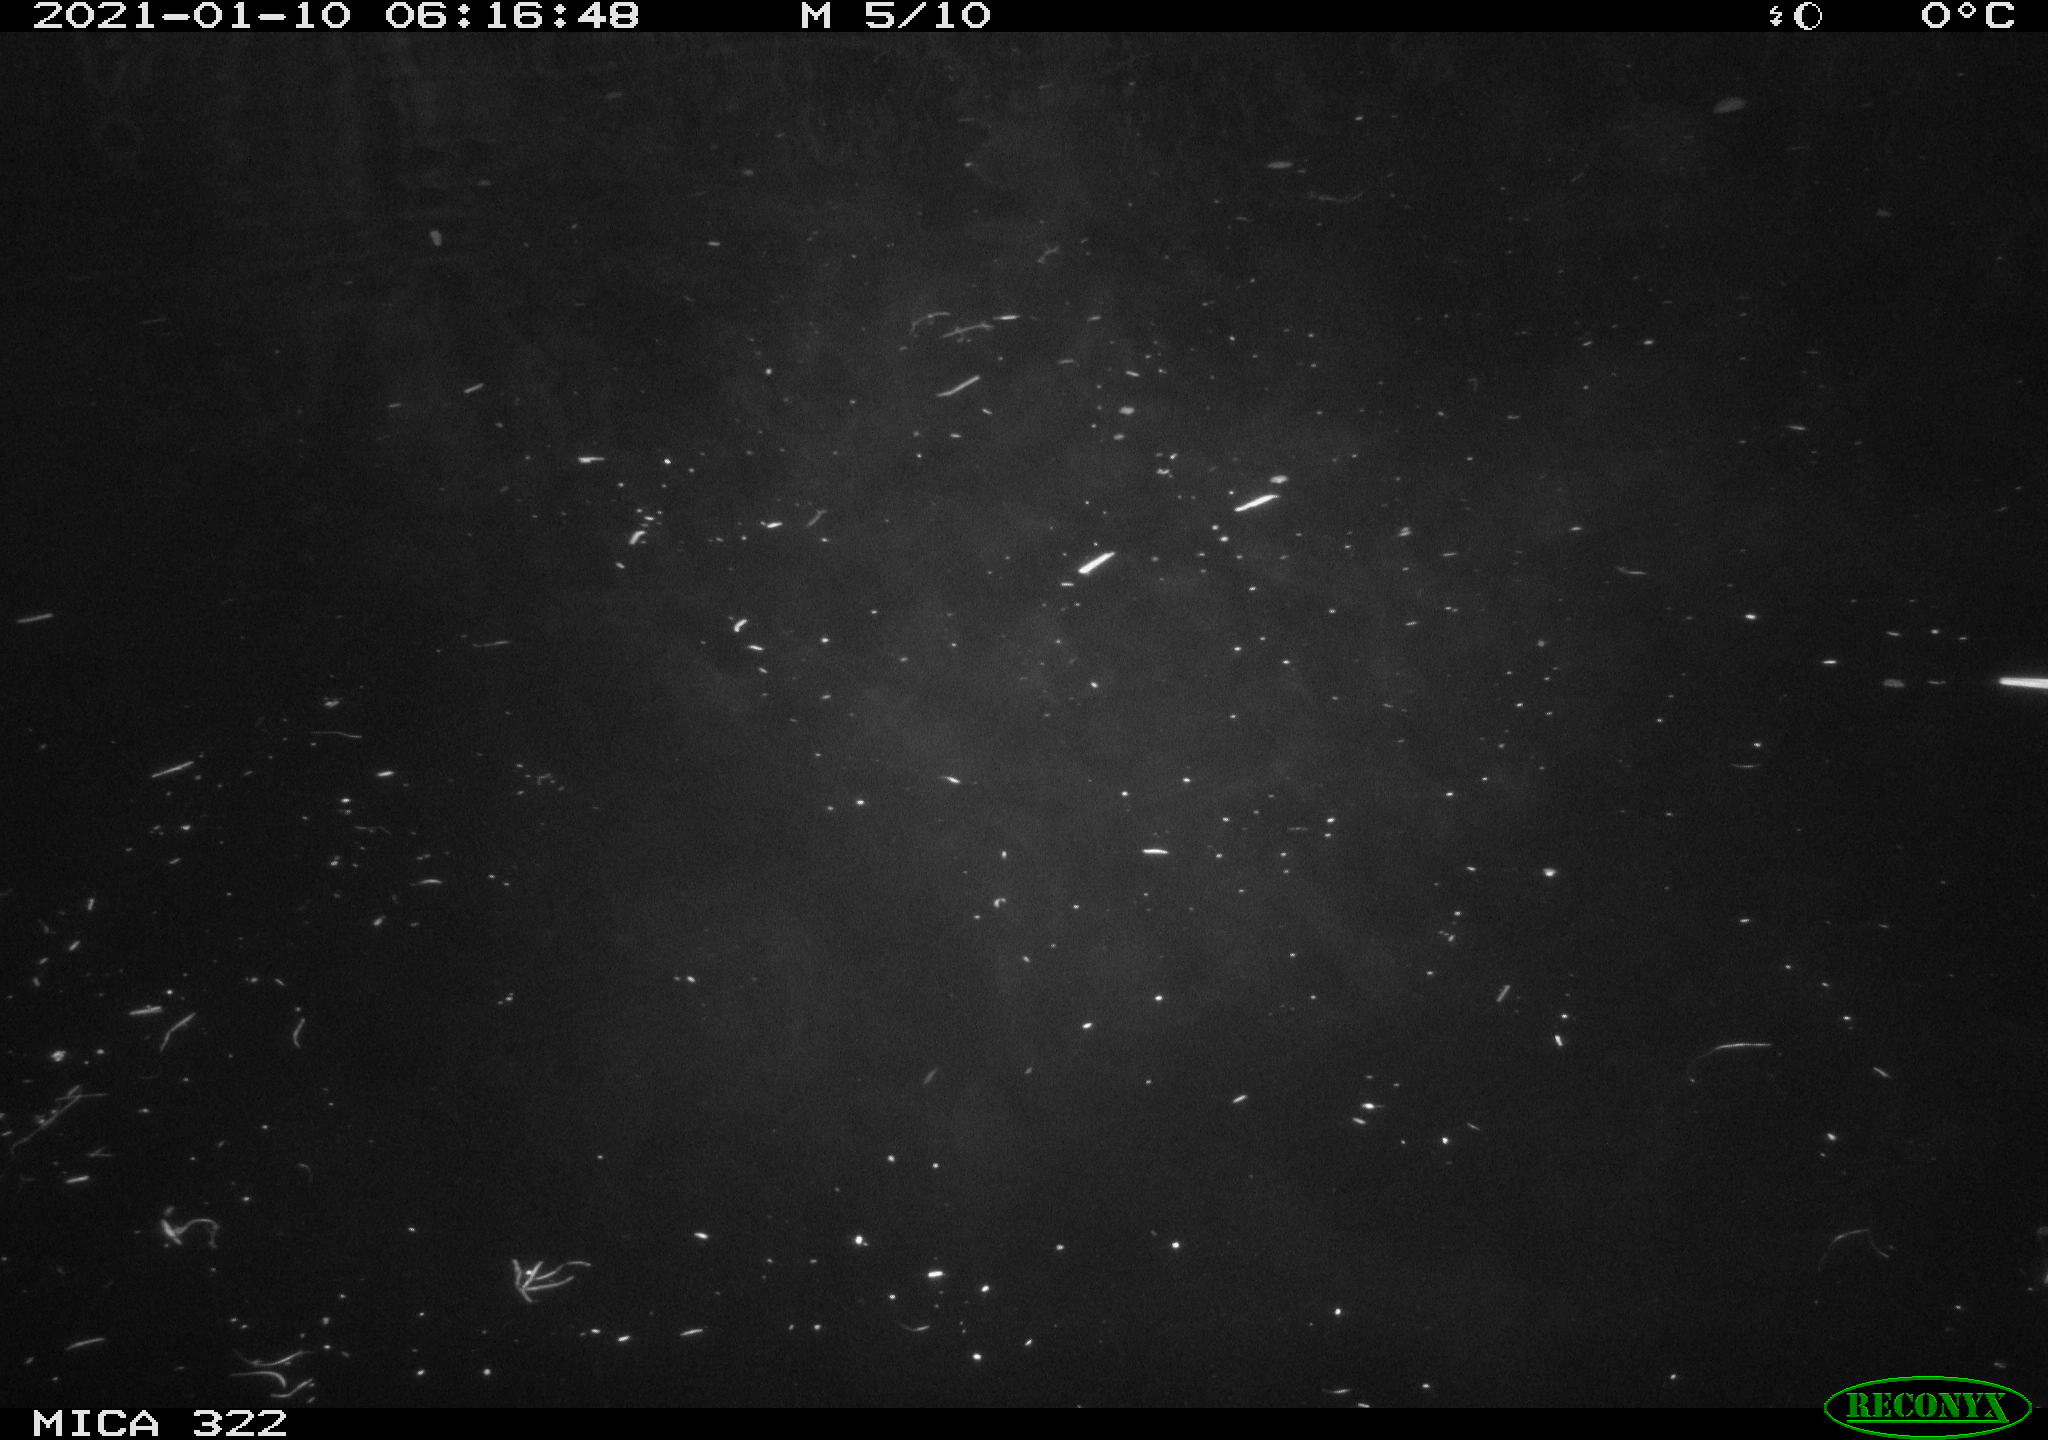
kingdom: Animalia
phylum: Chordata
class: Aves
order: Anseriformes
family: Anatidae
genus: Anas
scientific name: Anas platyrhynchos
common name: Mallard
